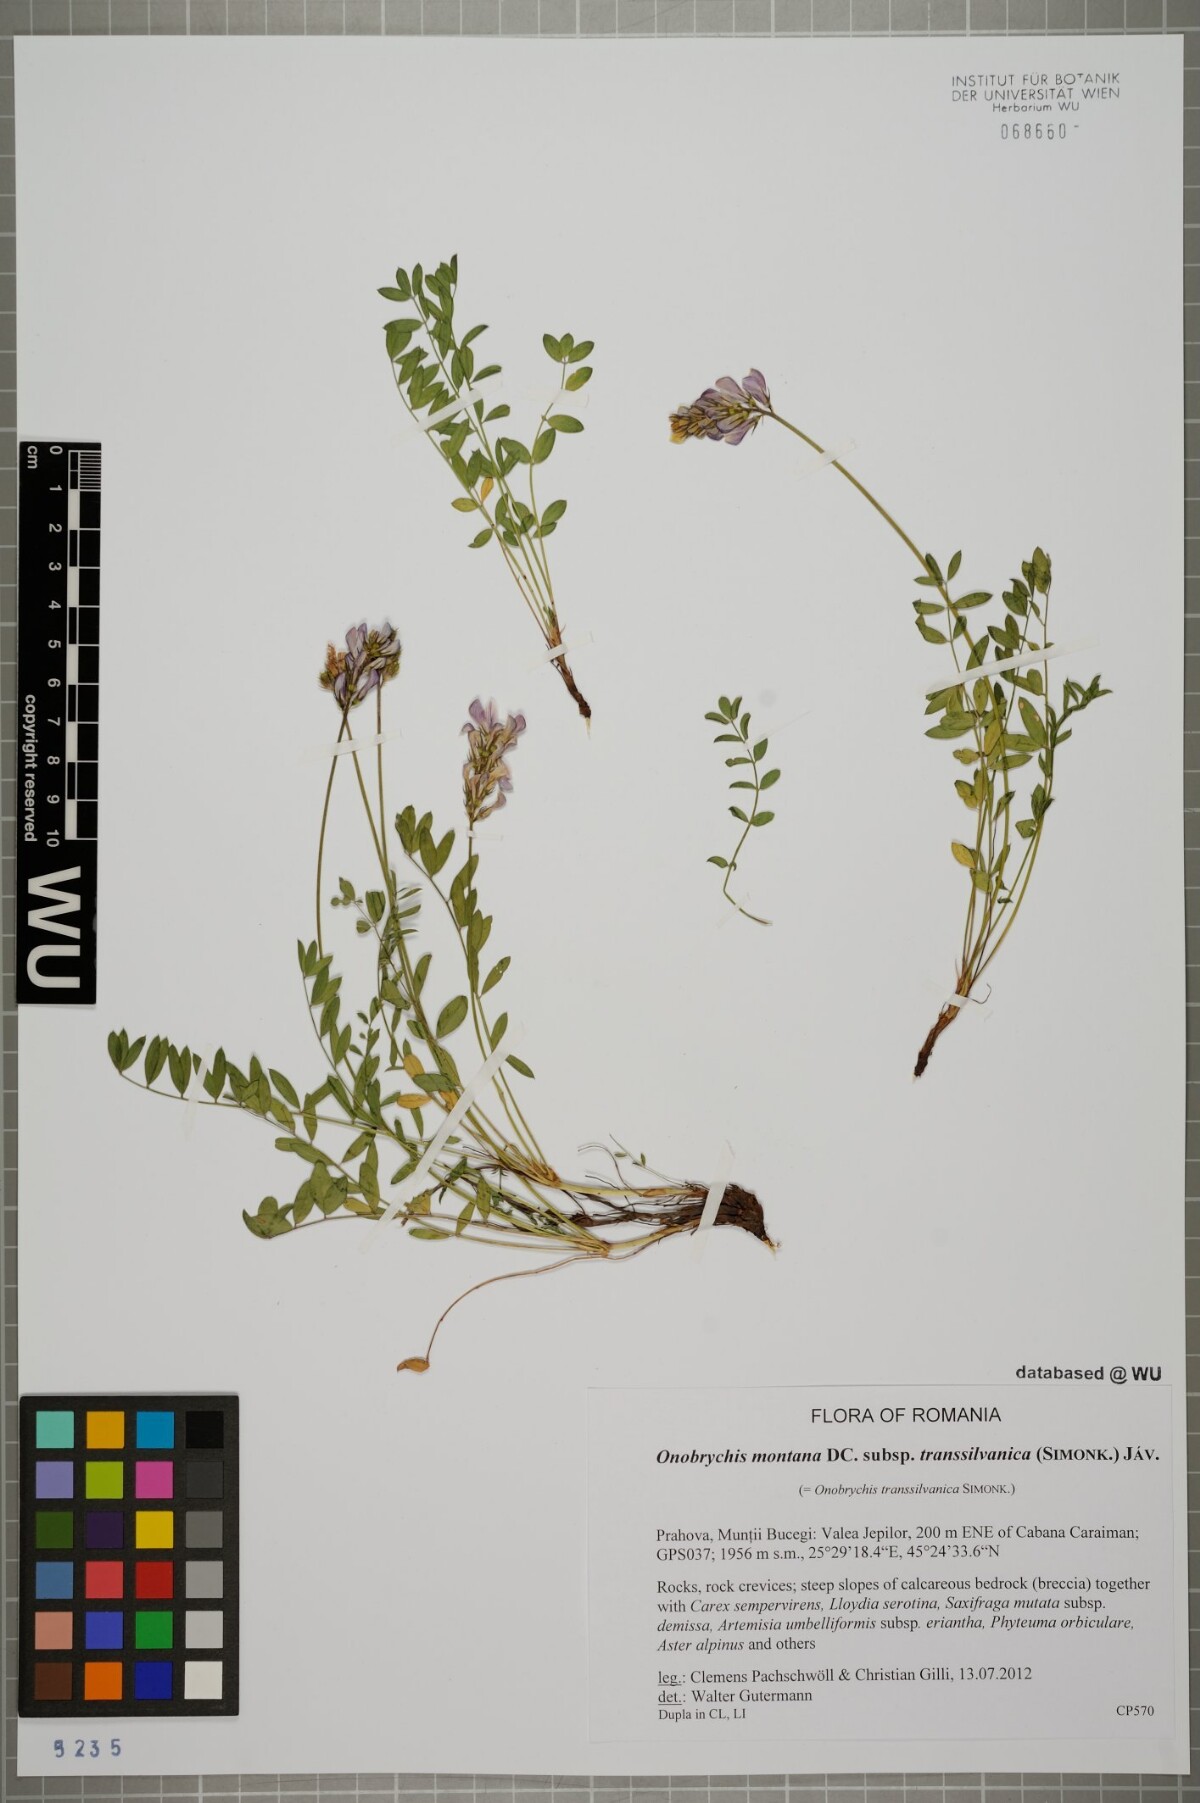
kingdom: Plantae
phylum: Tracheophyta
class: Magnoliopsida
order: Fabales
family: Fabaceae
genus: Onobrychis
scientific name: Onobrychis montana
